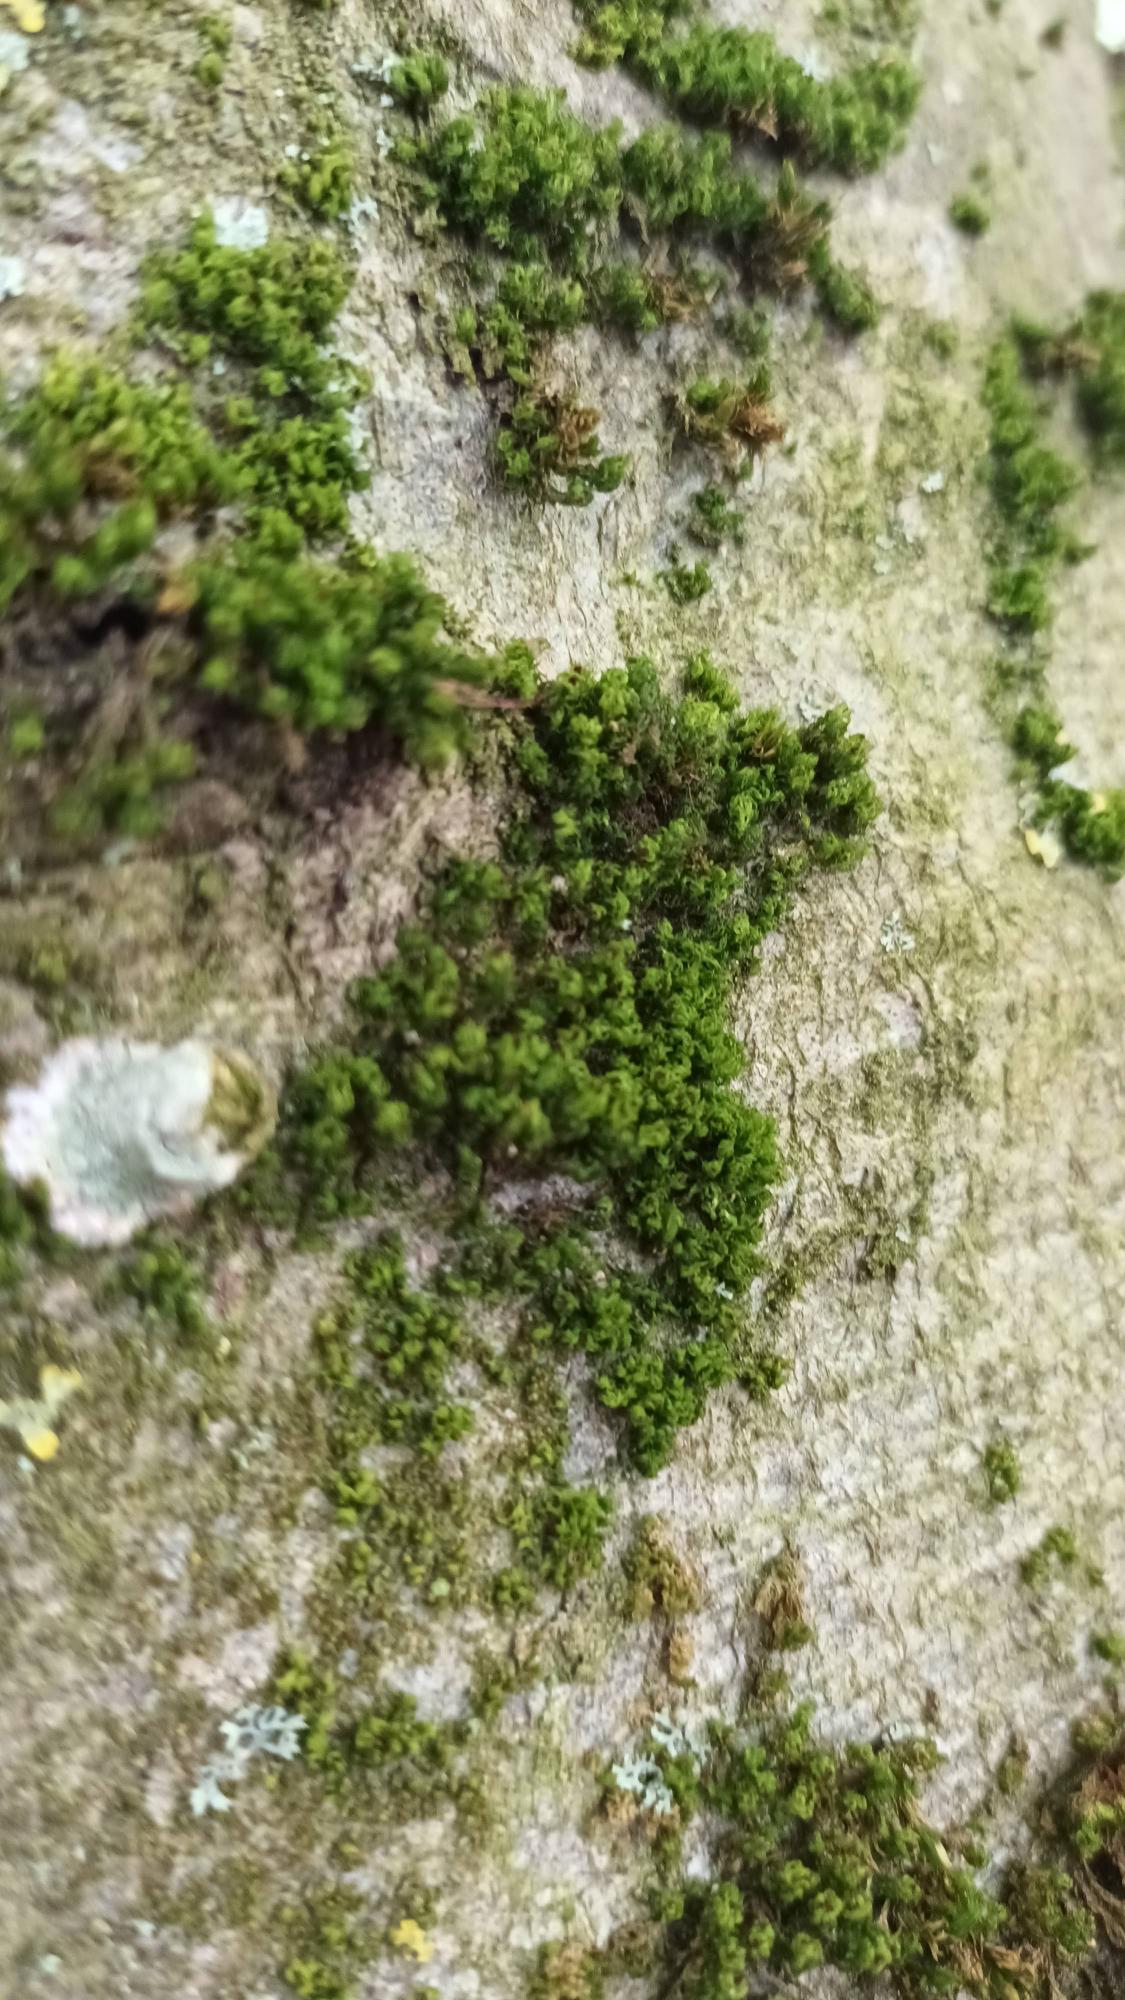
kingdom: Plantae
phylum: Bryophyta
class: Bryopsida
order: Orthotrichales
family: Orthotrichaceae
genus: Plenogemma
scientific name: Plenogemma phyllantha
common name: Stor låddenhætte
